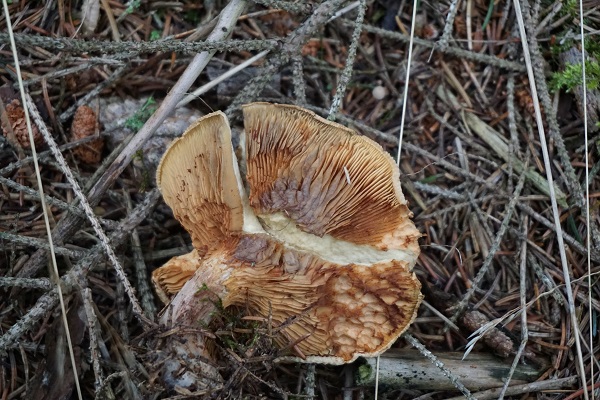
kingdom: Fungi
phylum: Basidiomycota
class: Agaricomycetes
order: Boletales
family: Paxillaceae
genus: Paxillus
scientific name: Paxillus involutus
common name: almindelig netbladhat
